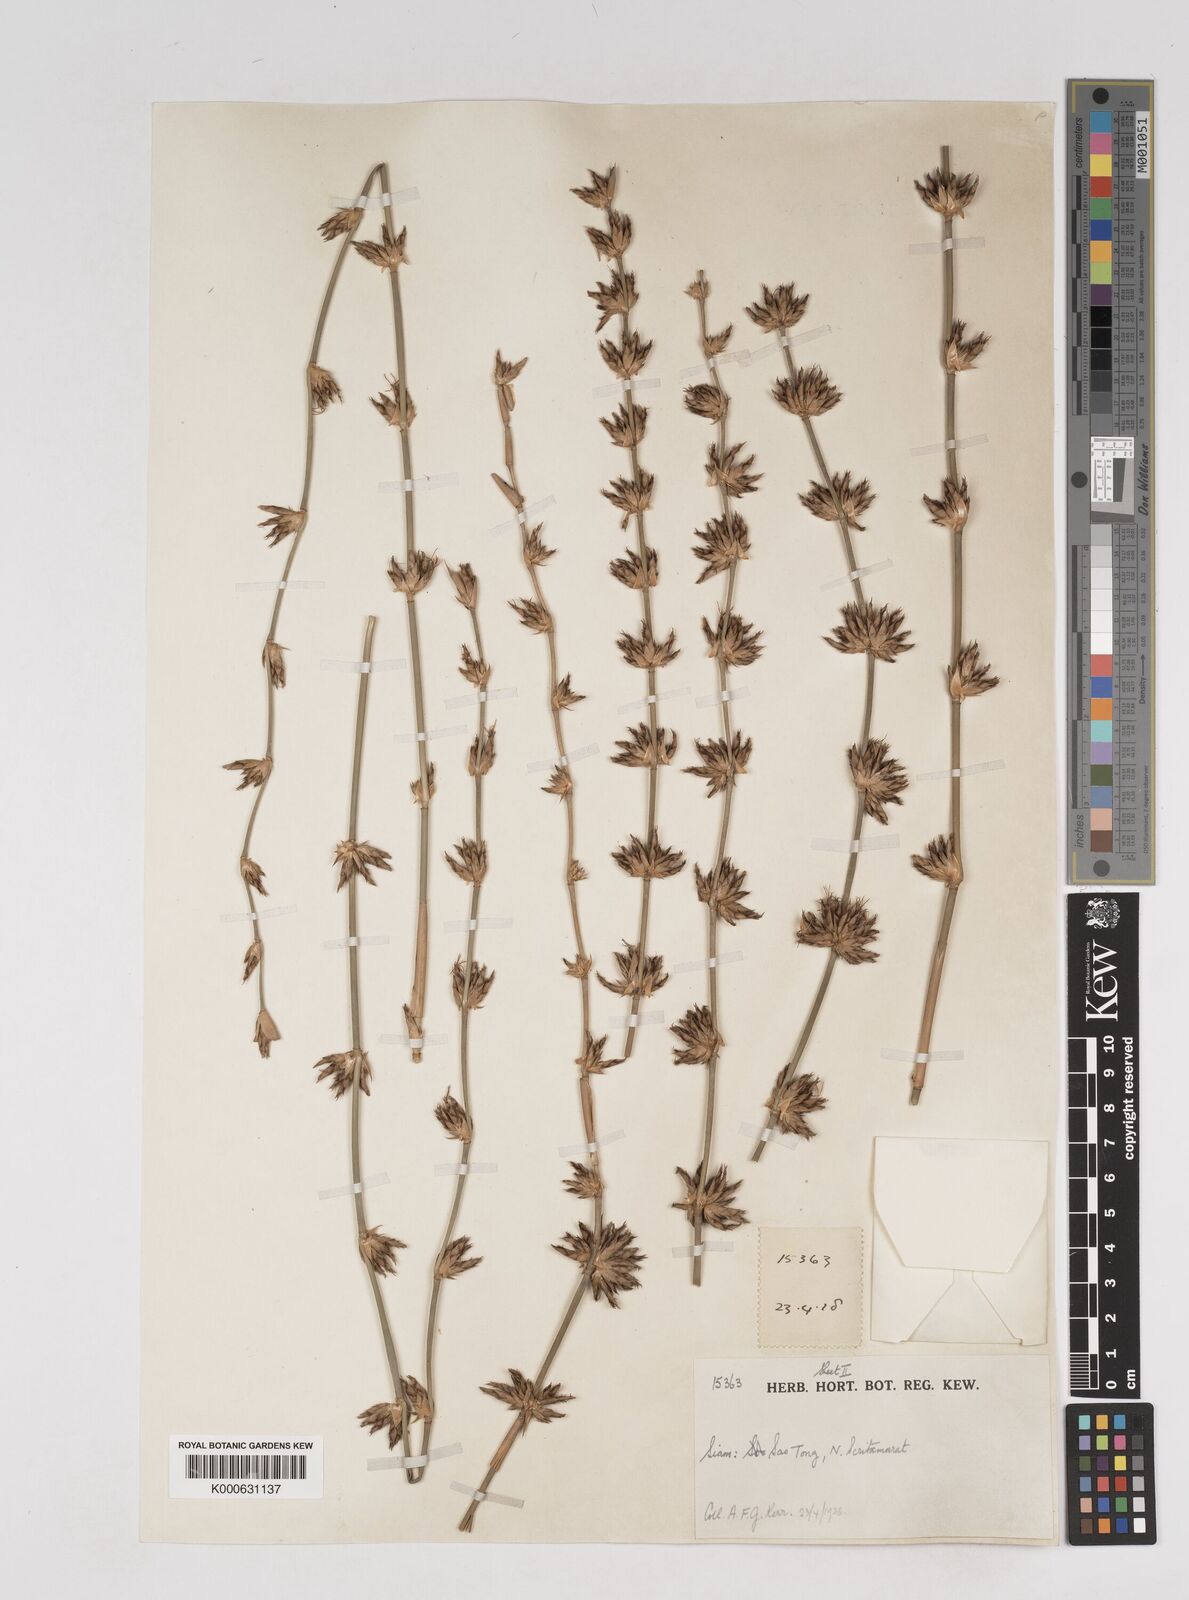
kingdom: Plantae
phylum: Tracheophyta
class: Liliopsida
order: Poales
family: Poaceae
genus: Gigantochloa
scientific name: Gigantochloa
